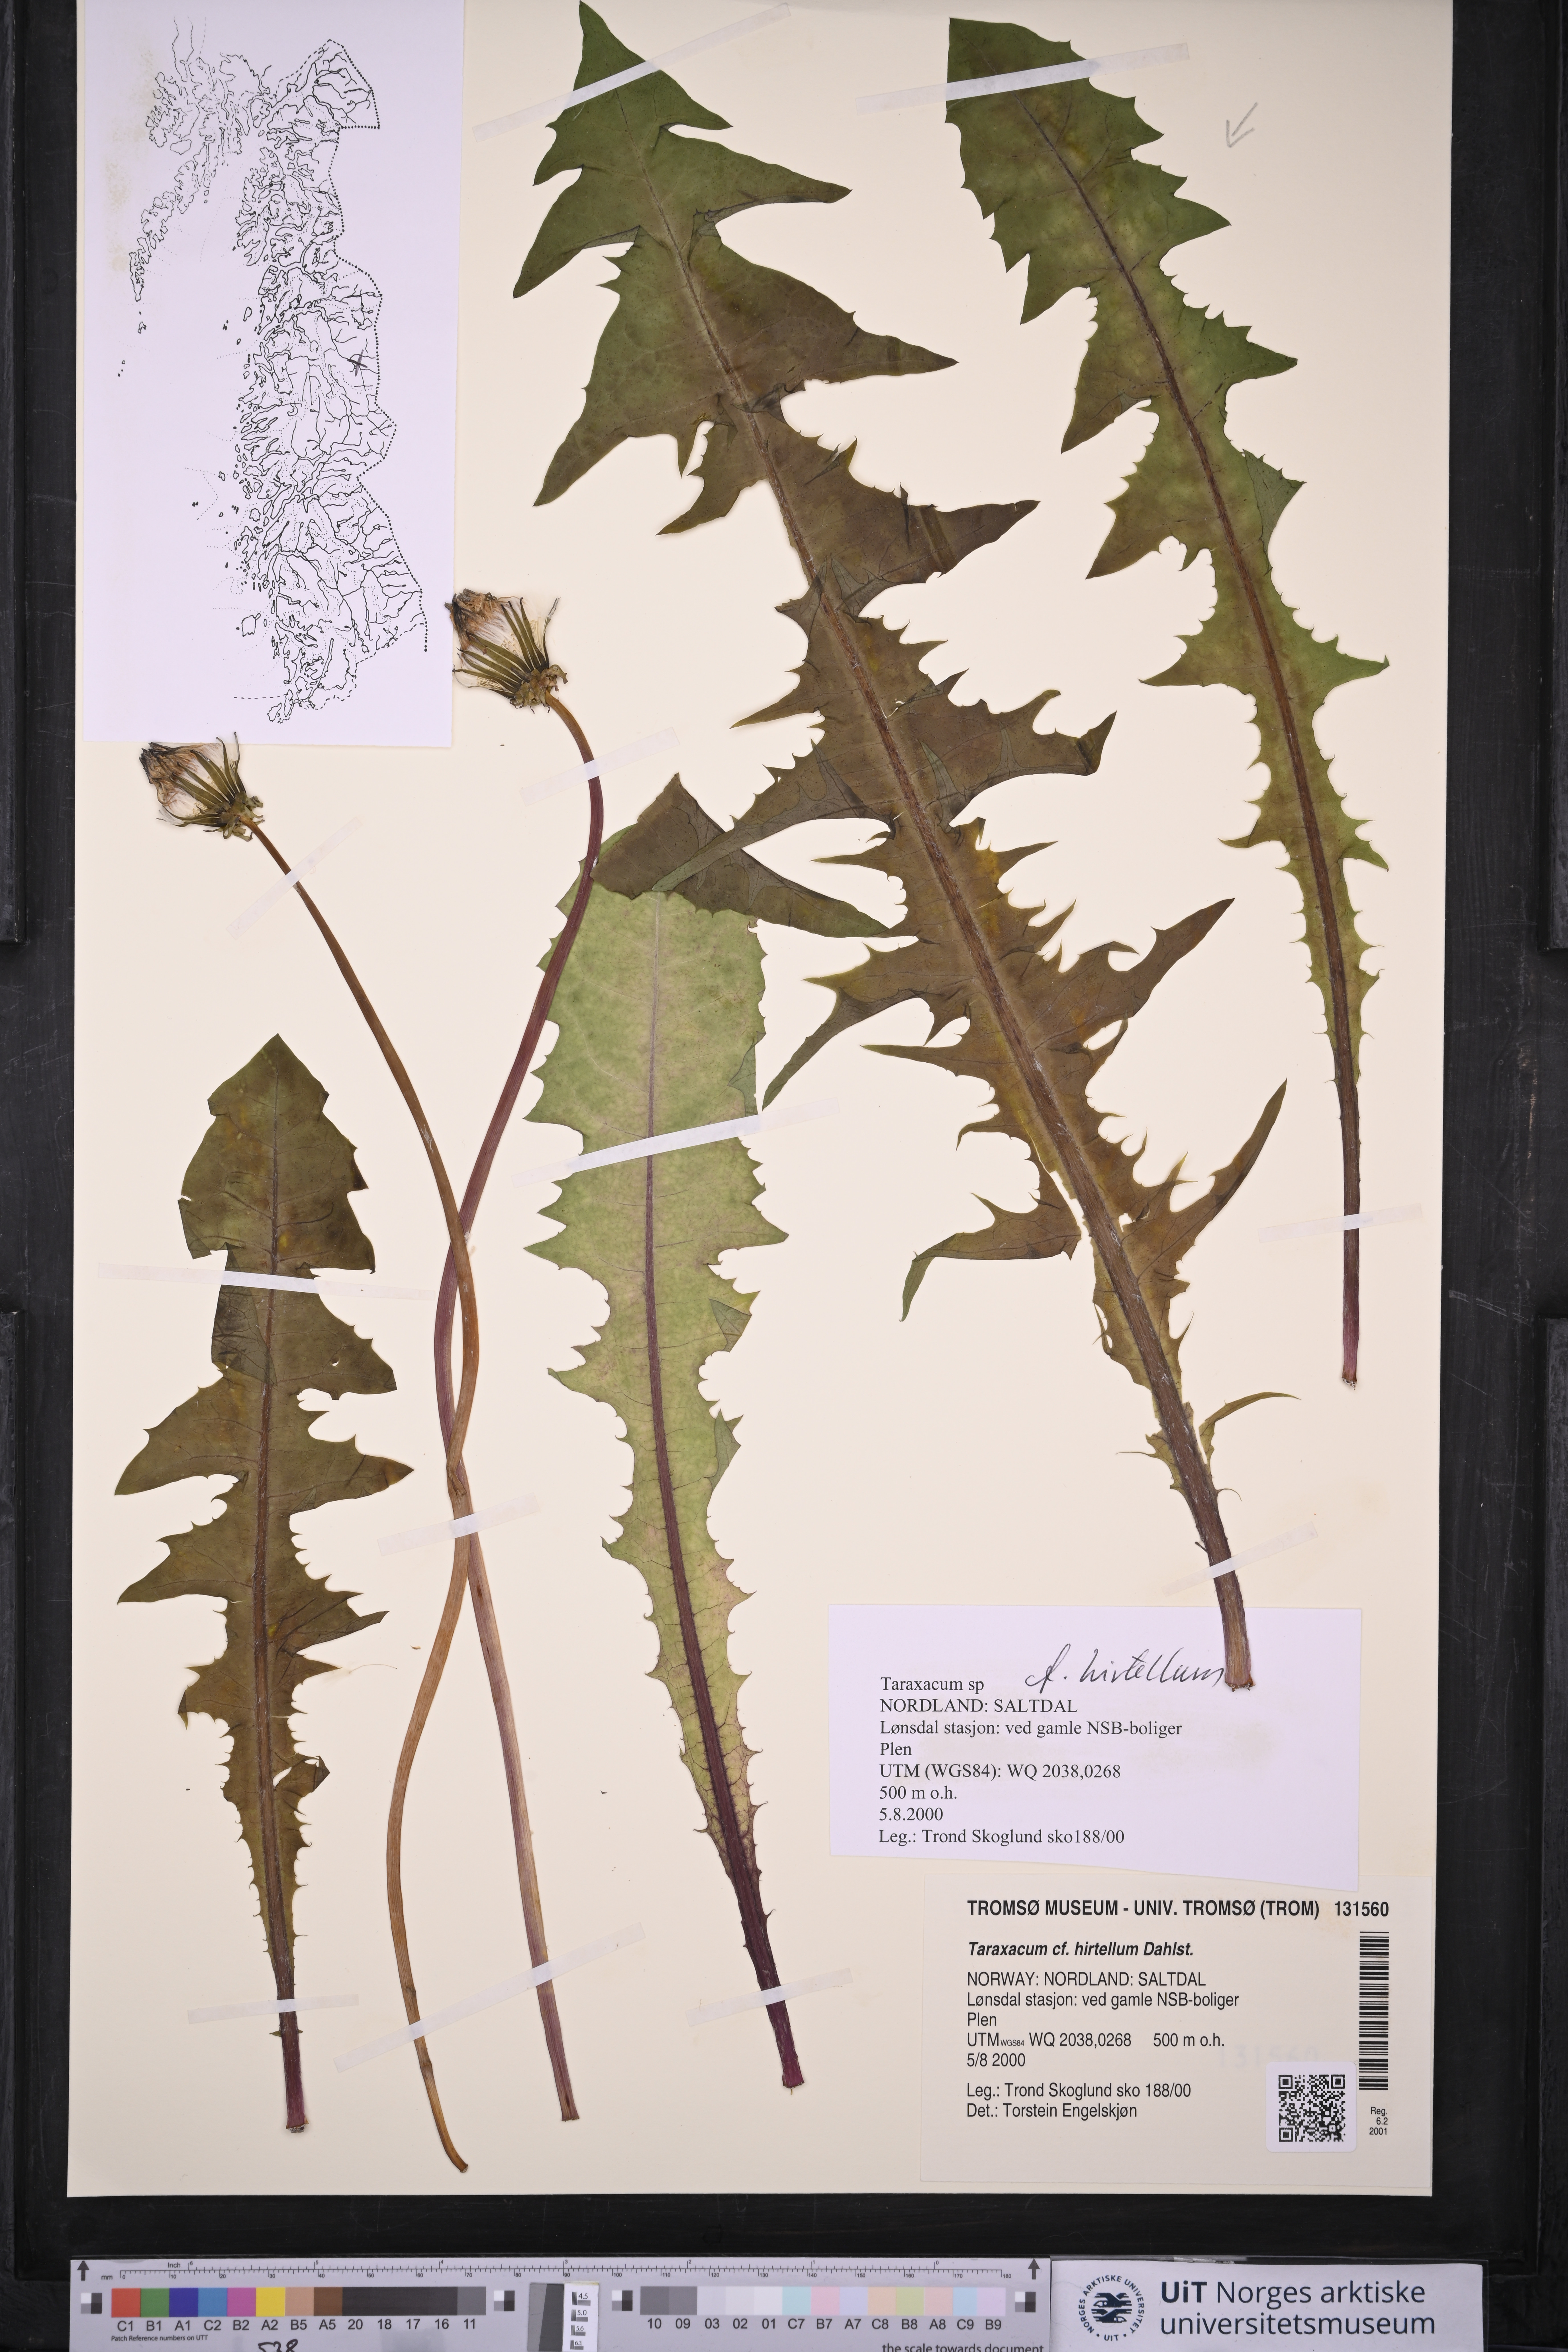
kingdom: Plantae
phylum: Tracheophyta
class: Magnoliopsida
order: Asterales
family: Asteraceae
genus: Taraxacum
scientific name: Taraxacum hirtellum
